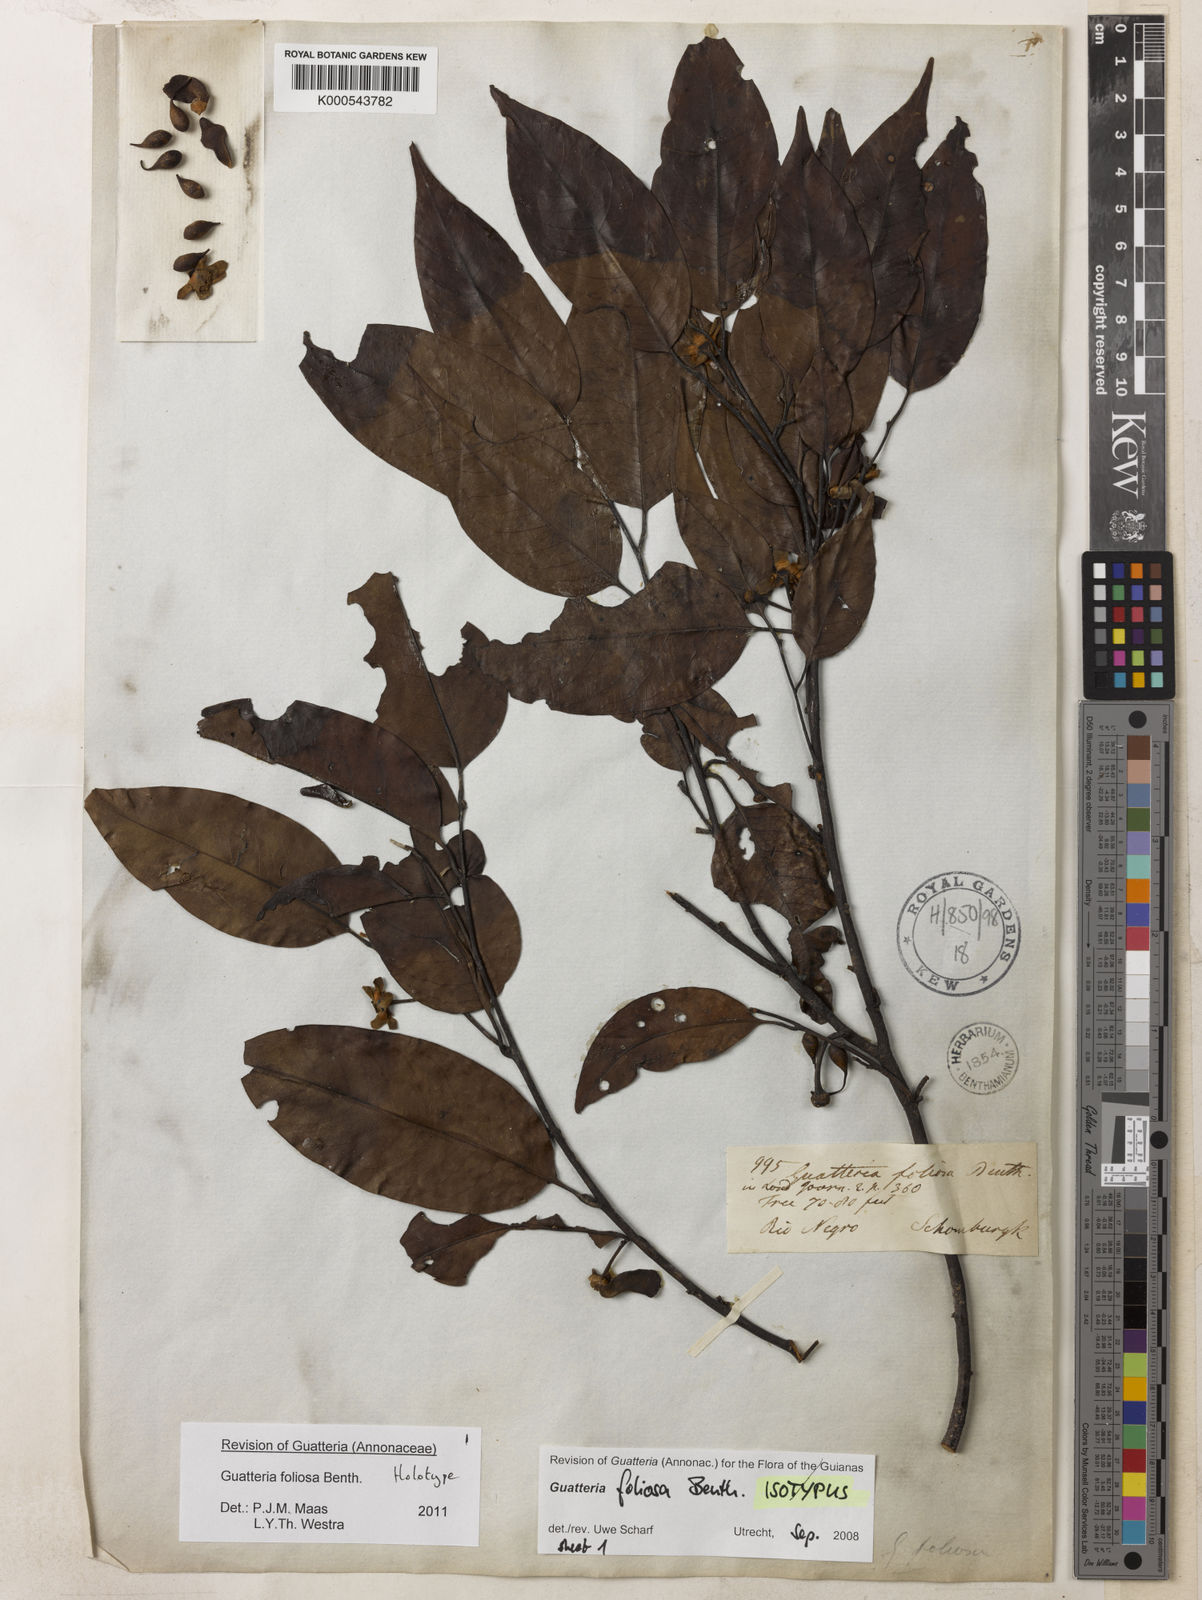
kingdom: Plantae
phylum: Tracheophyta
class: Magnoliopsida
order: Magnoliales
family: Annonaceae
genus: Guatteria
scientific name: Guatteria foliosa
